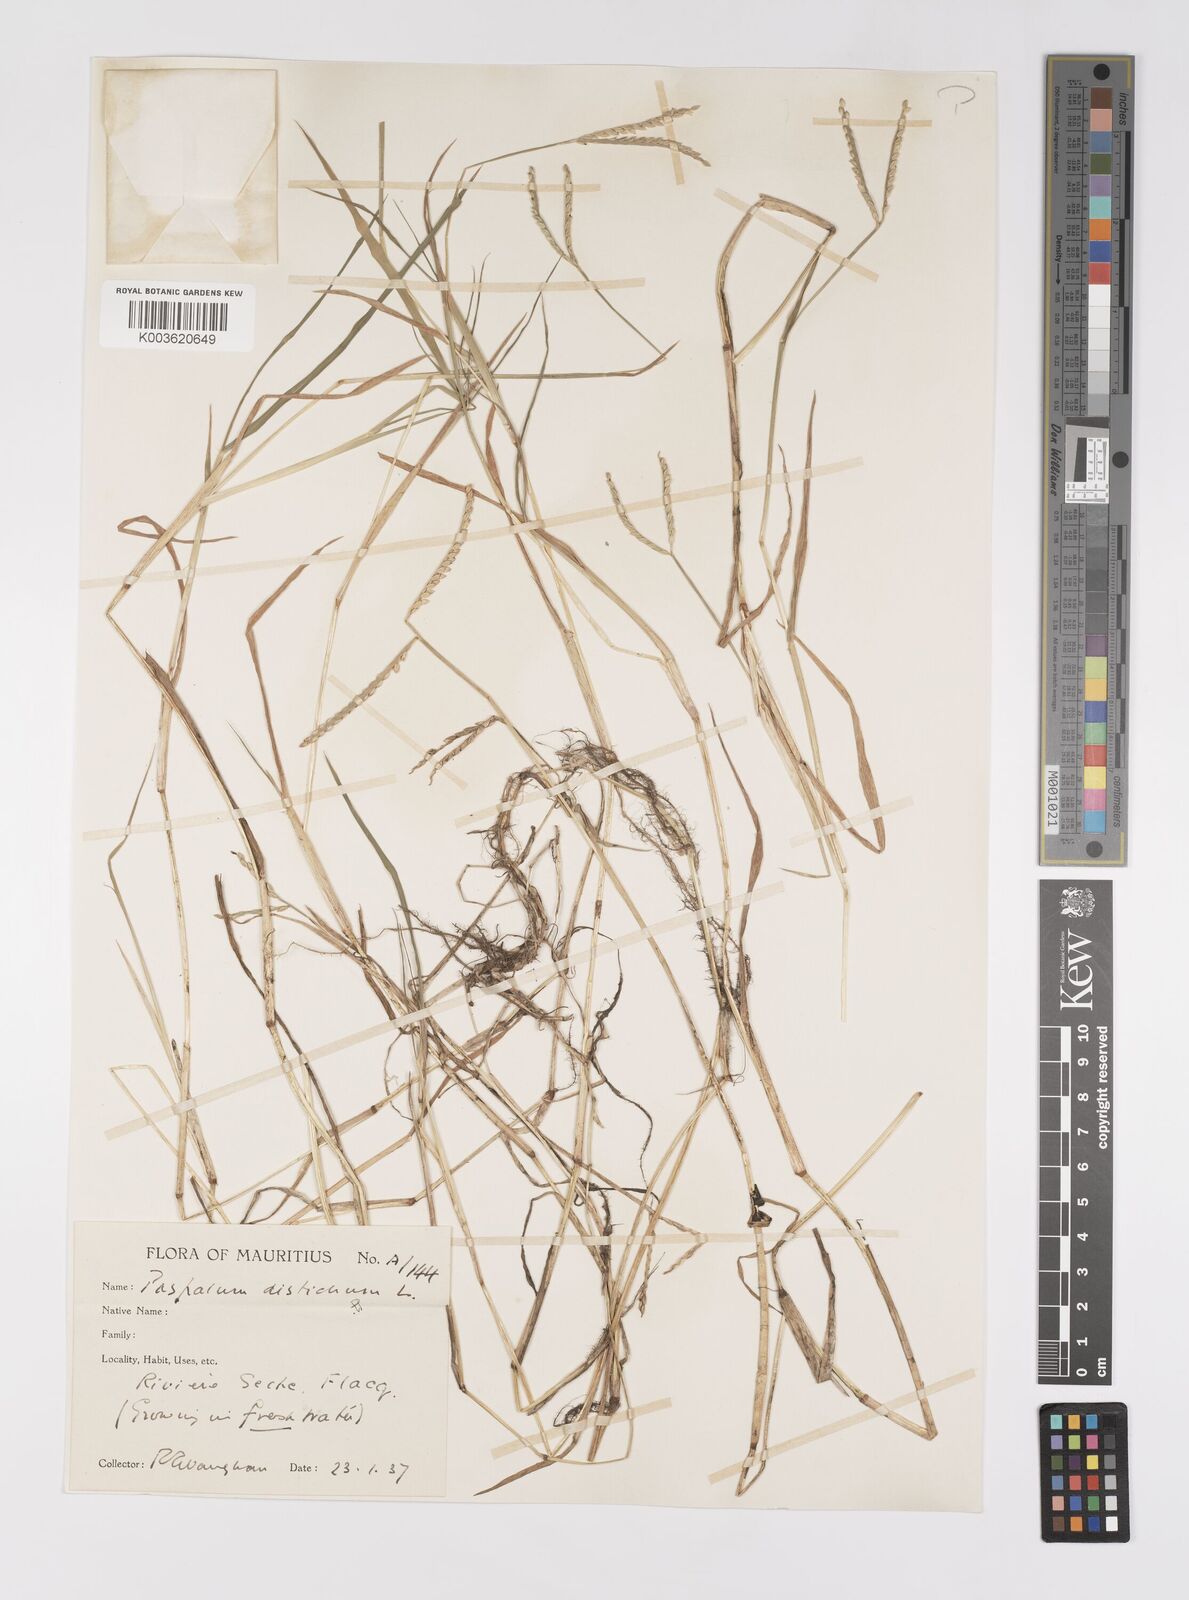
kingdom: Plantae
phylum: Tracheophyta
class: Liliopsida
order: Poales
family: Poaceae
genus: Paspalum
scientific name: Paspalum distichum
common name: Knotgrass
